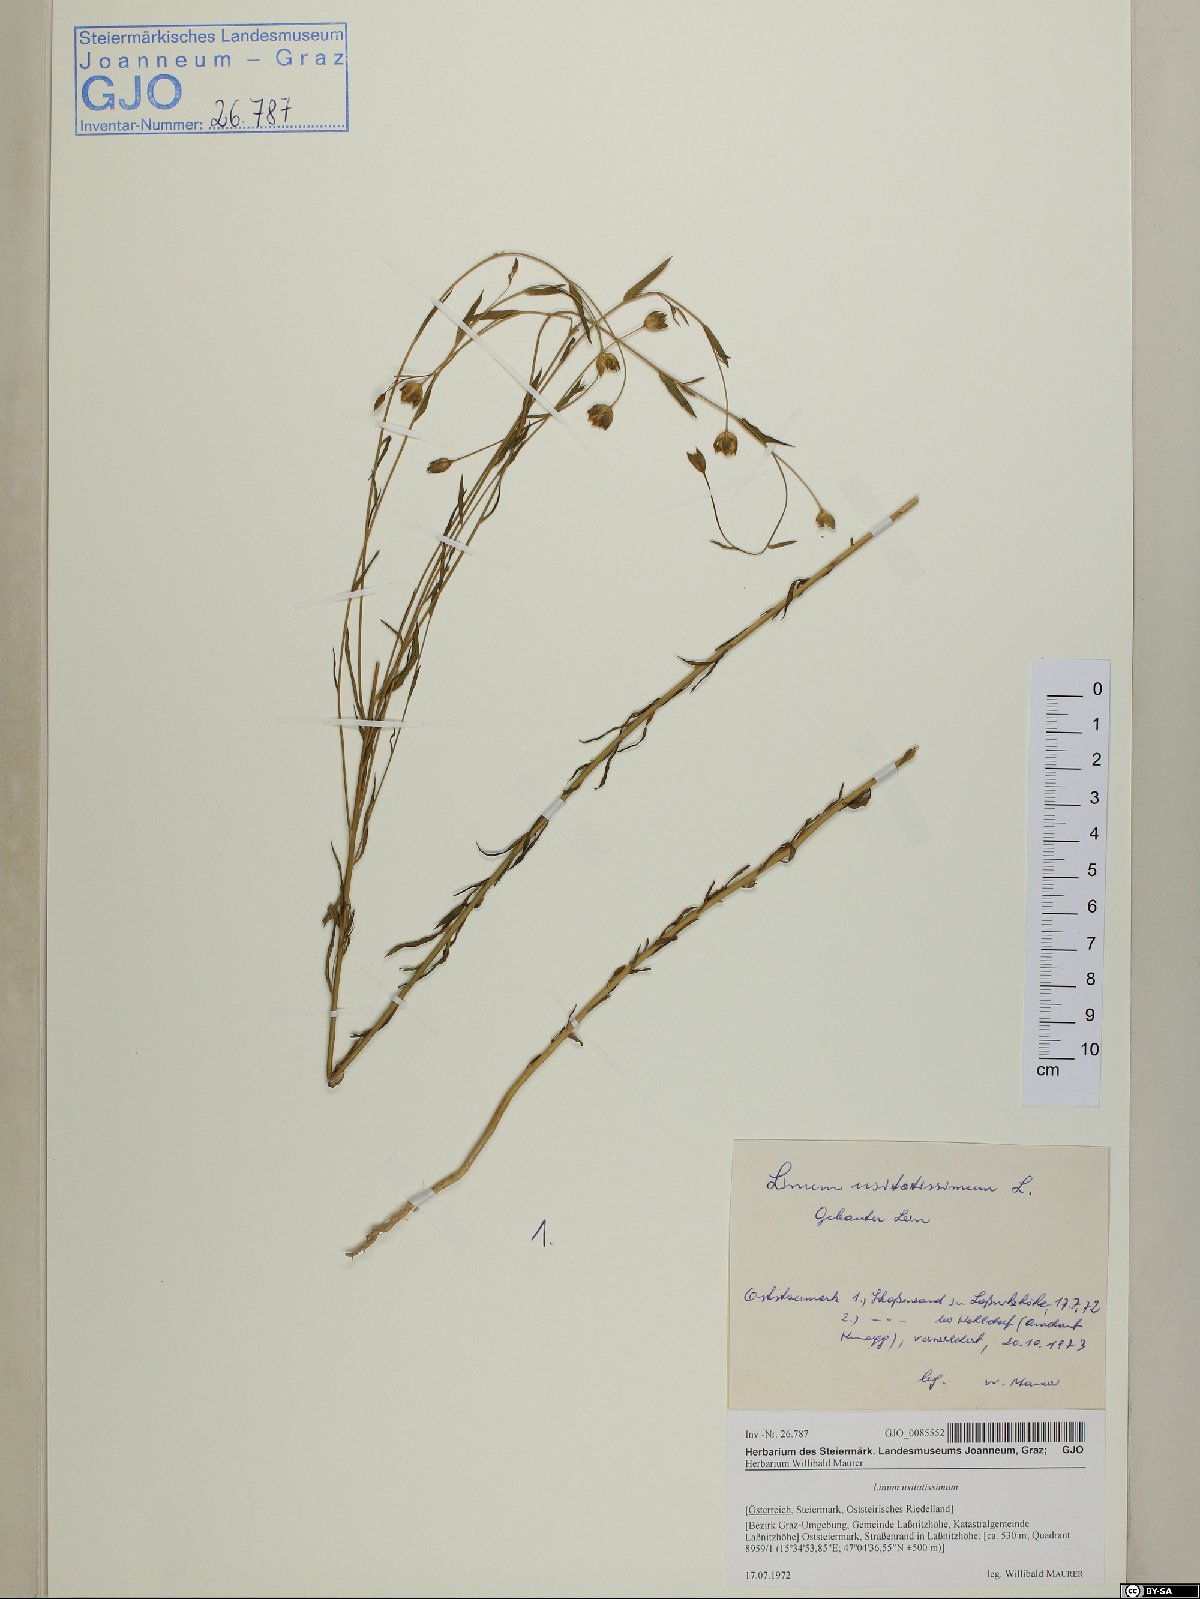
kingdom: Plantae
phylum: Tracheophyta
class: Magnoliopsida
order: Malpighiales
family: Linaceae
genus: Linum
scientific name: Linum usitatissimum
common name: Flax
